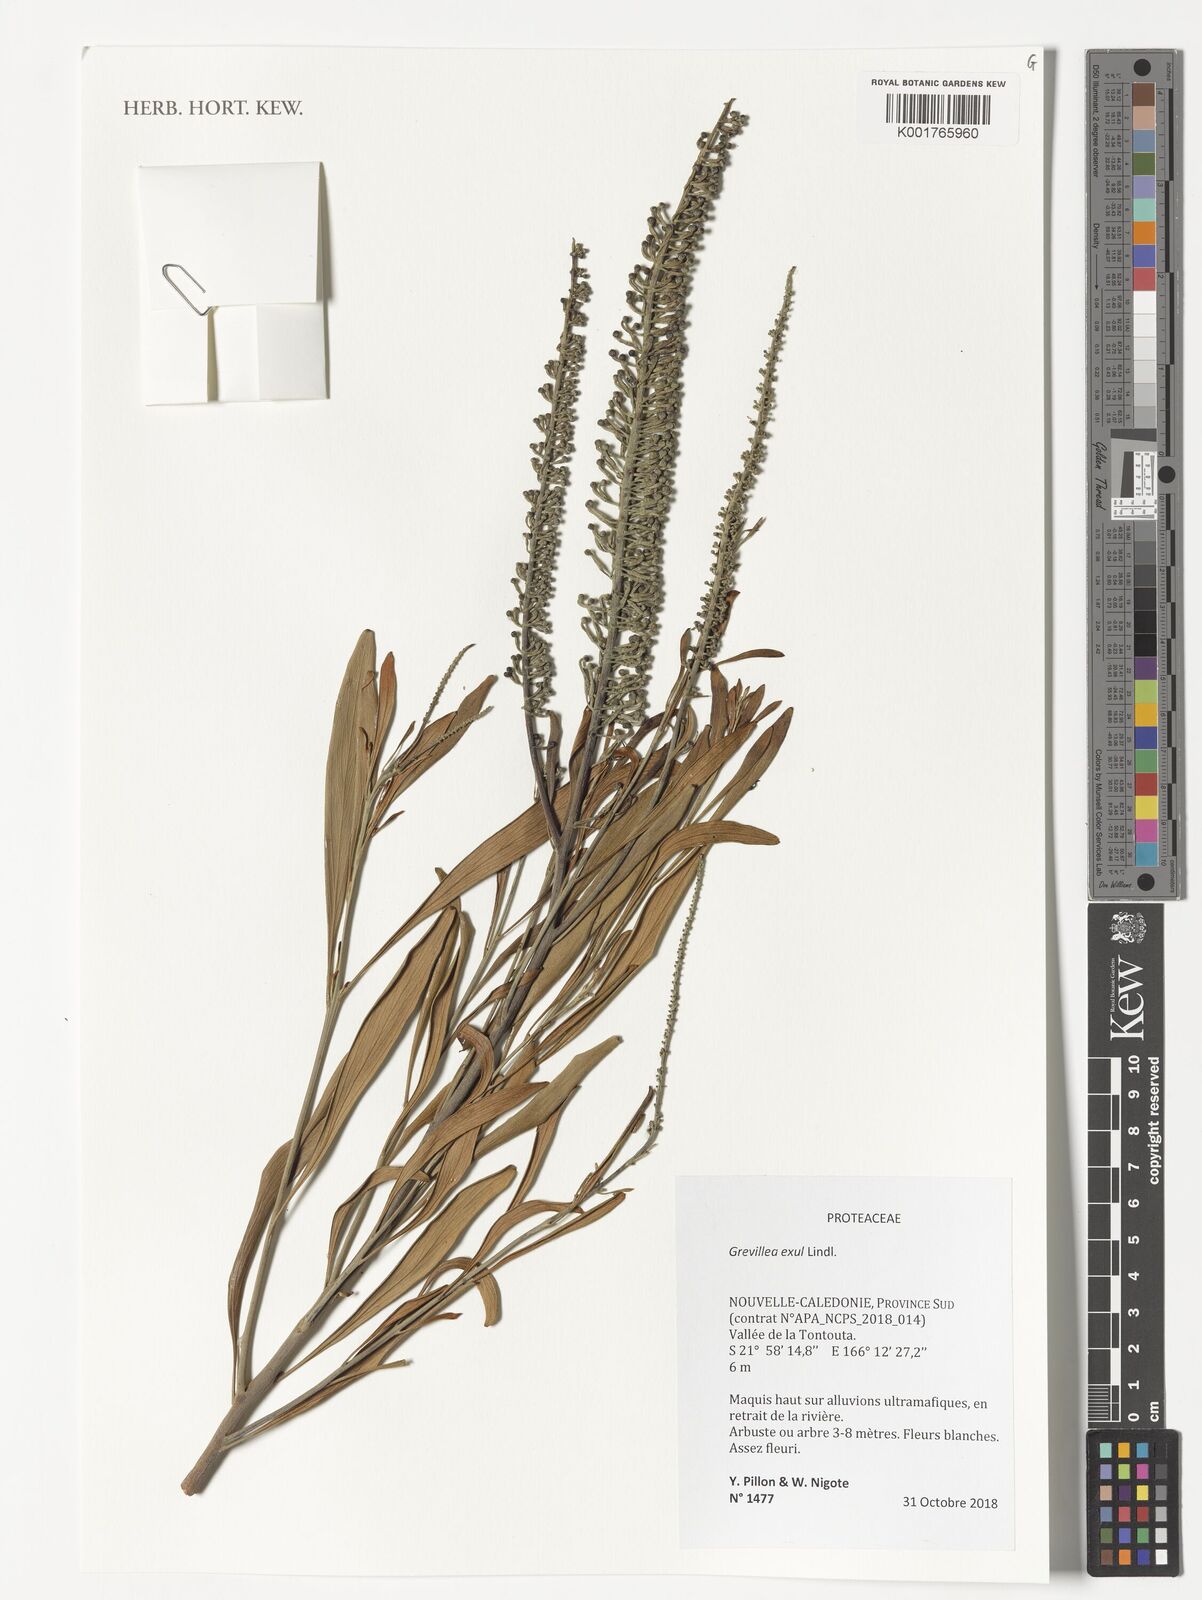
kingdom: Plantae
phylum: Tracheophyta
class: Magnoliopsida
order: Proteales
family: Proteaceae
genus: Grevillea
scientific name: Grevillea exul
